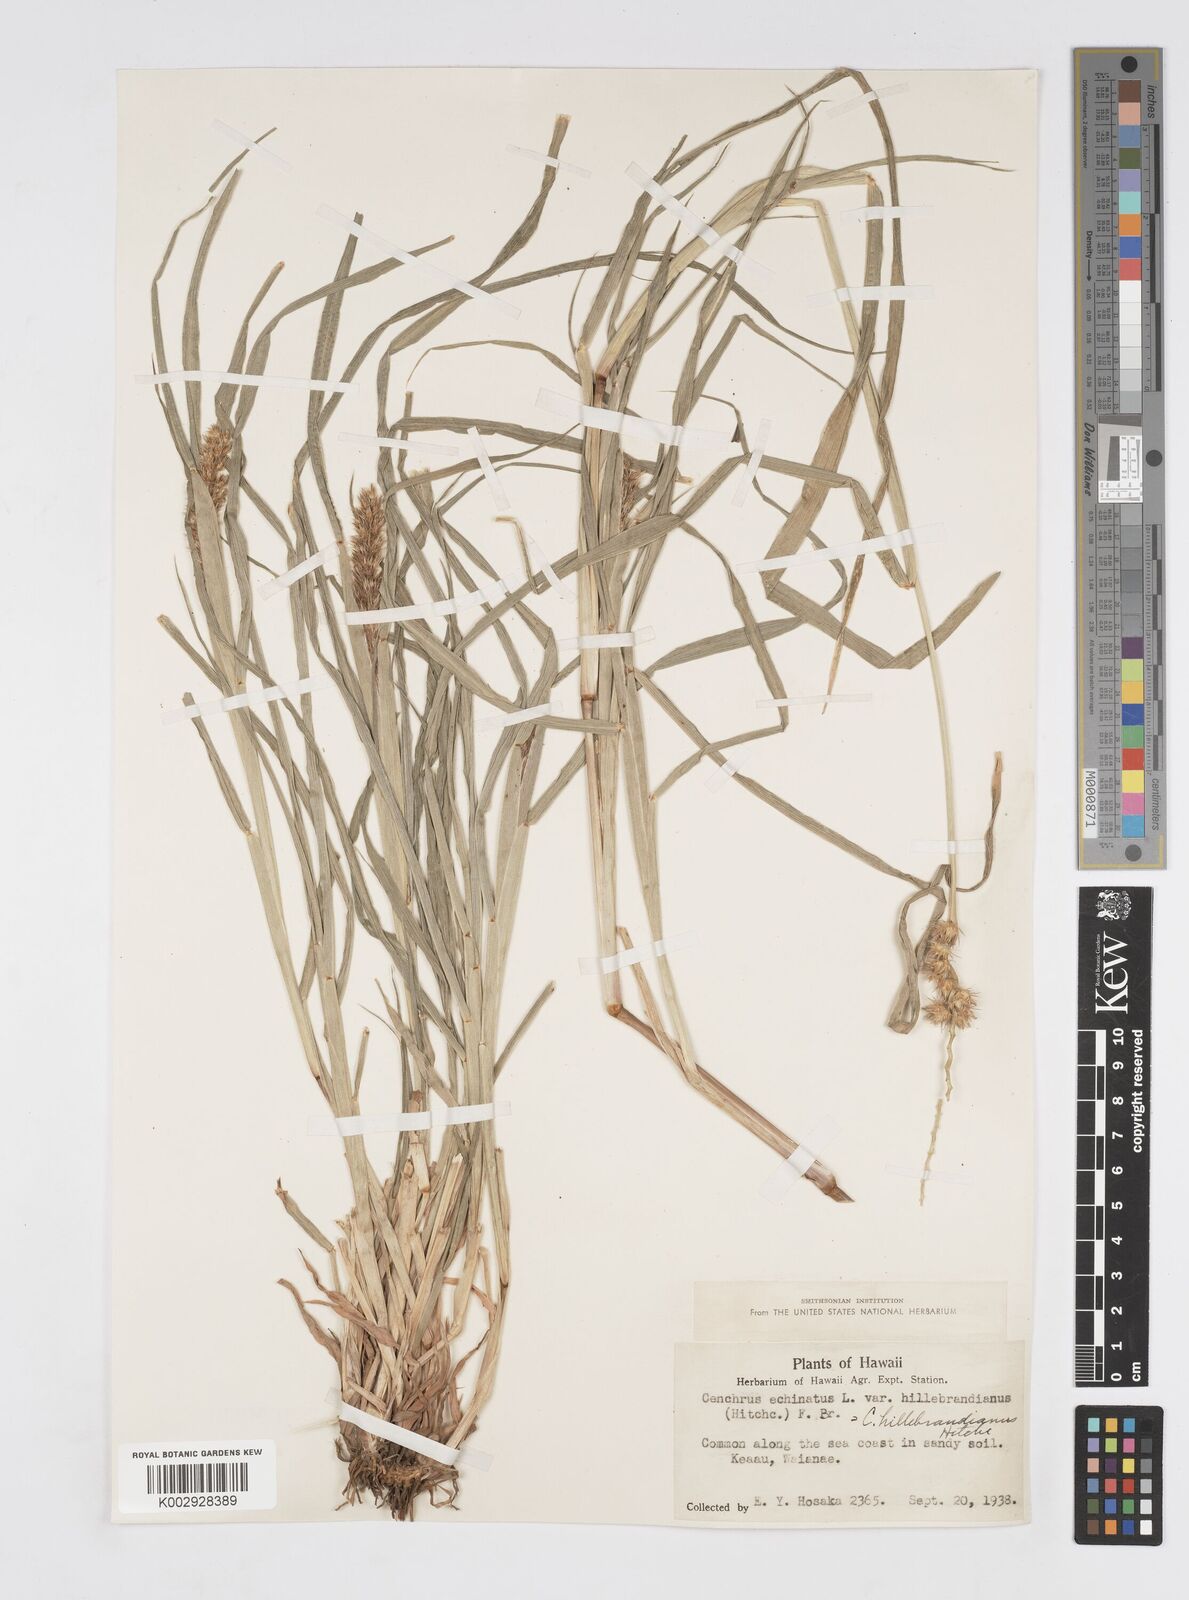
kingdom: Plantae
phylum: Tracheophyta
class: Liliopsida
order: Poales
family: Poaceae
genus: Cenchrus
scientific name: Cenchrus echinatus
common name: Southern sandbur
